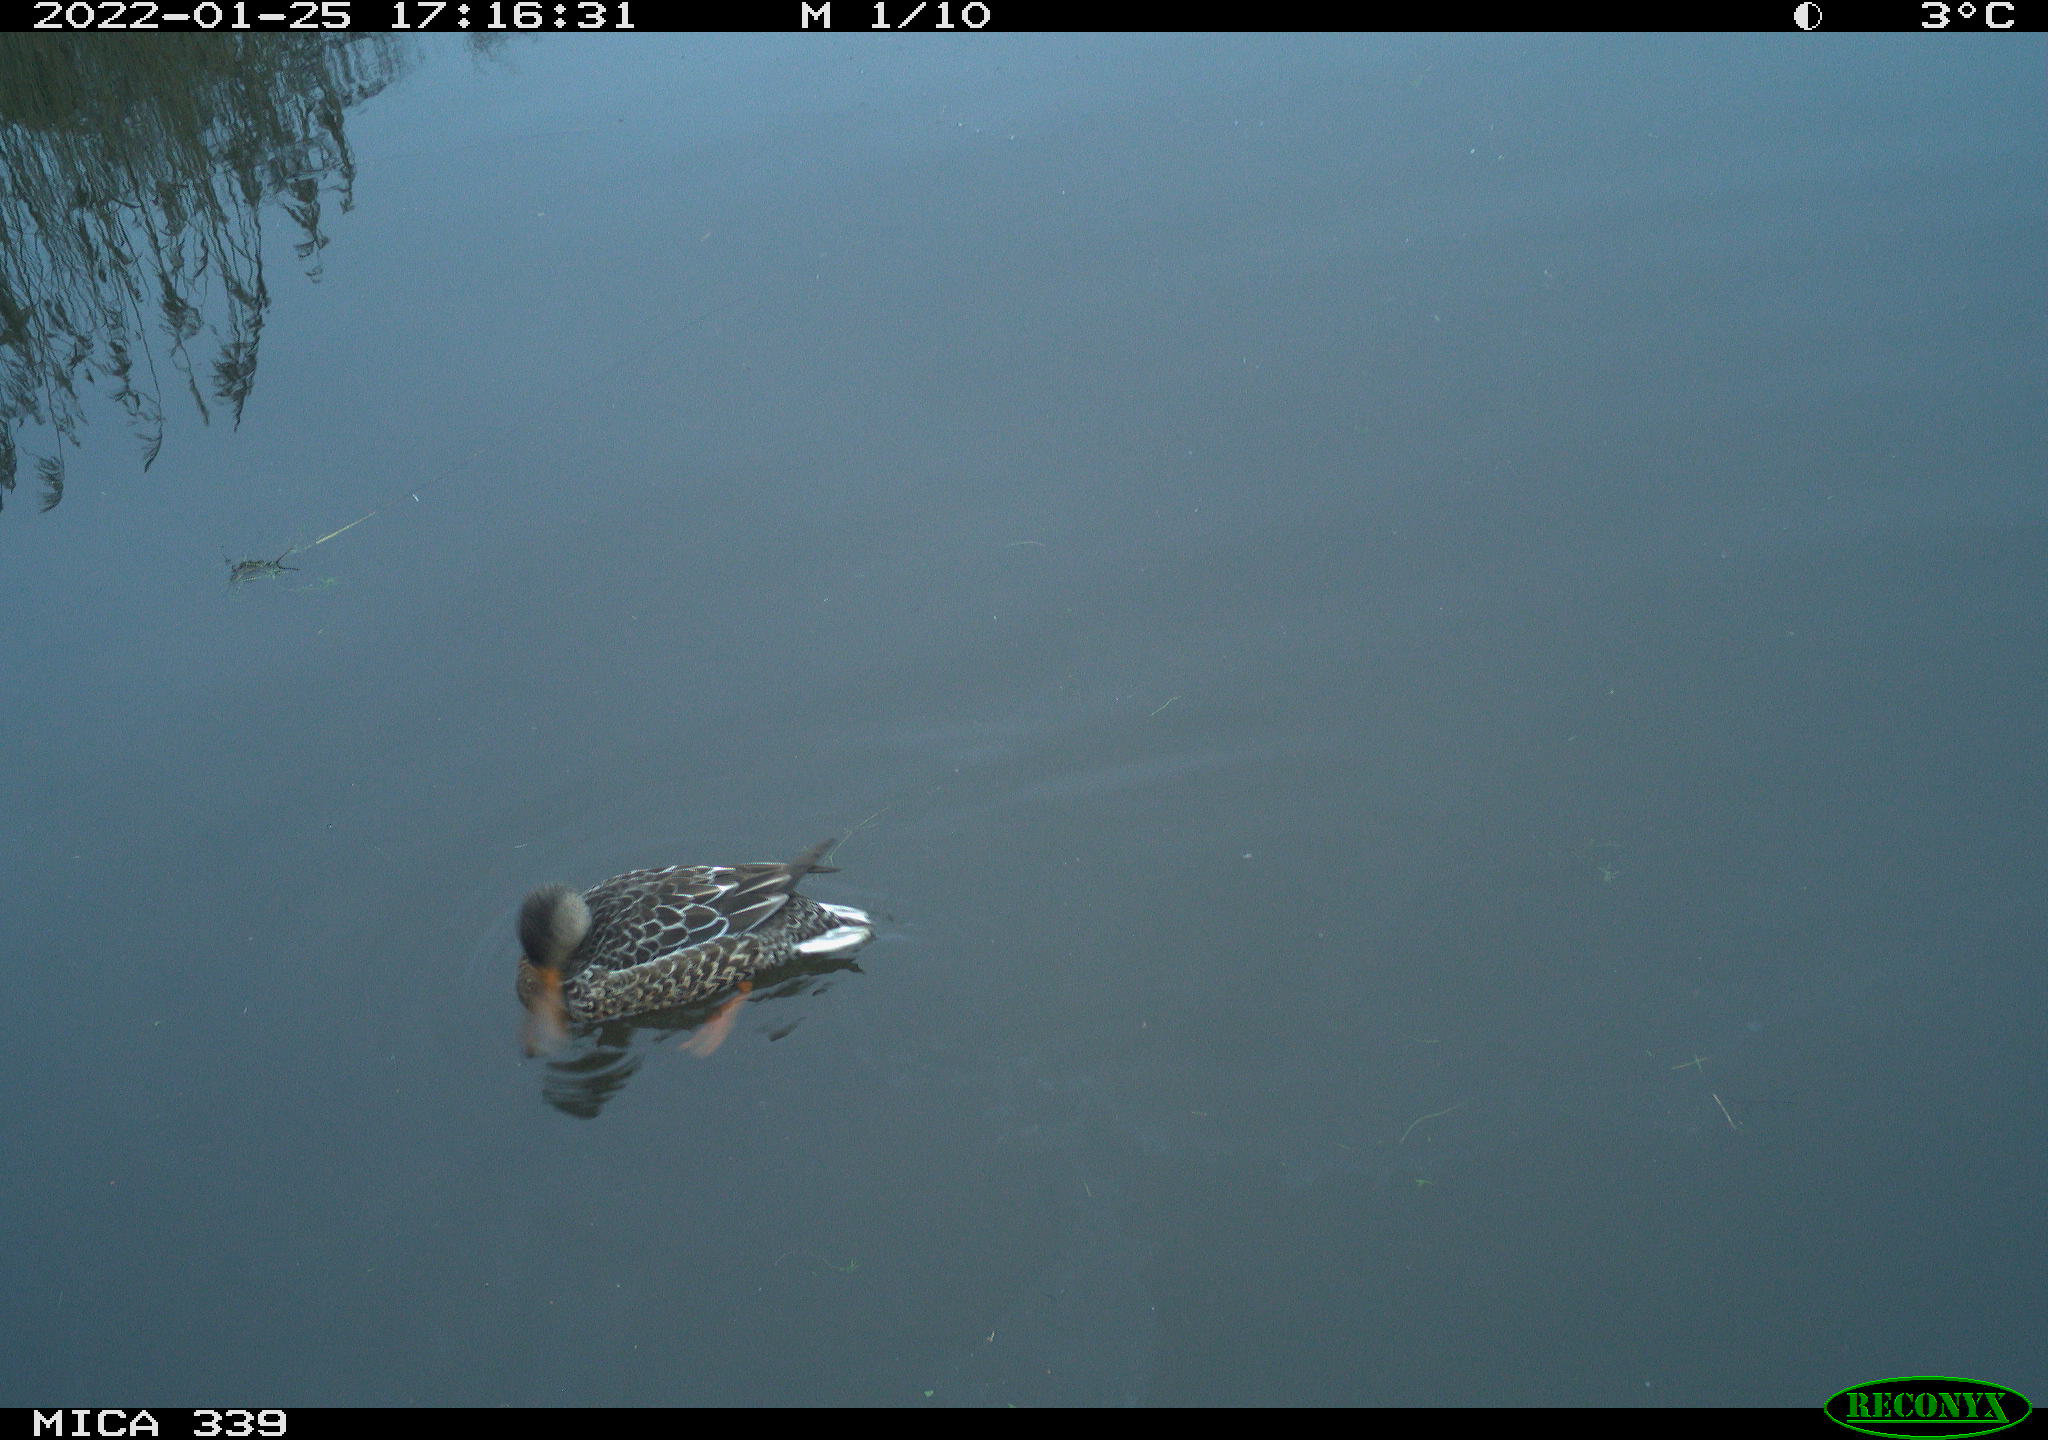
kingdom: Animalia
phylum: Chordata
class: Aves
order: Anseriformes
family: Anatidae
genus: Anas
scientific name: Anas platyrhynchos
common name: Mallard
